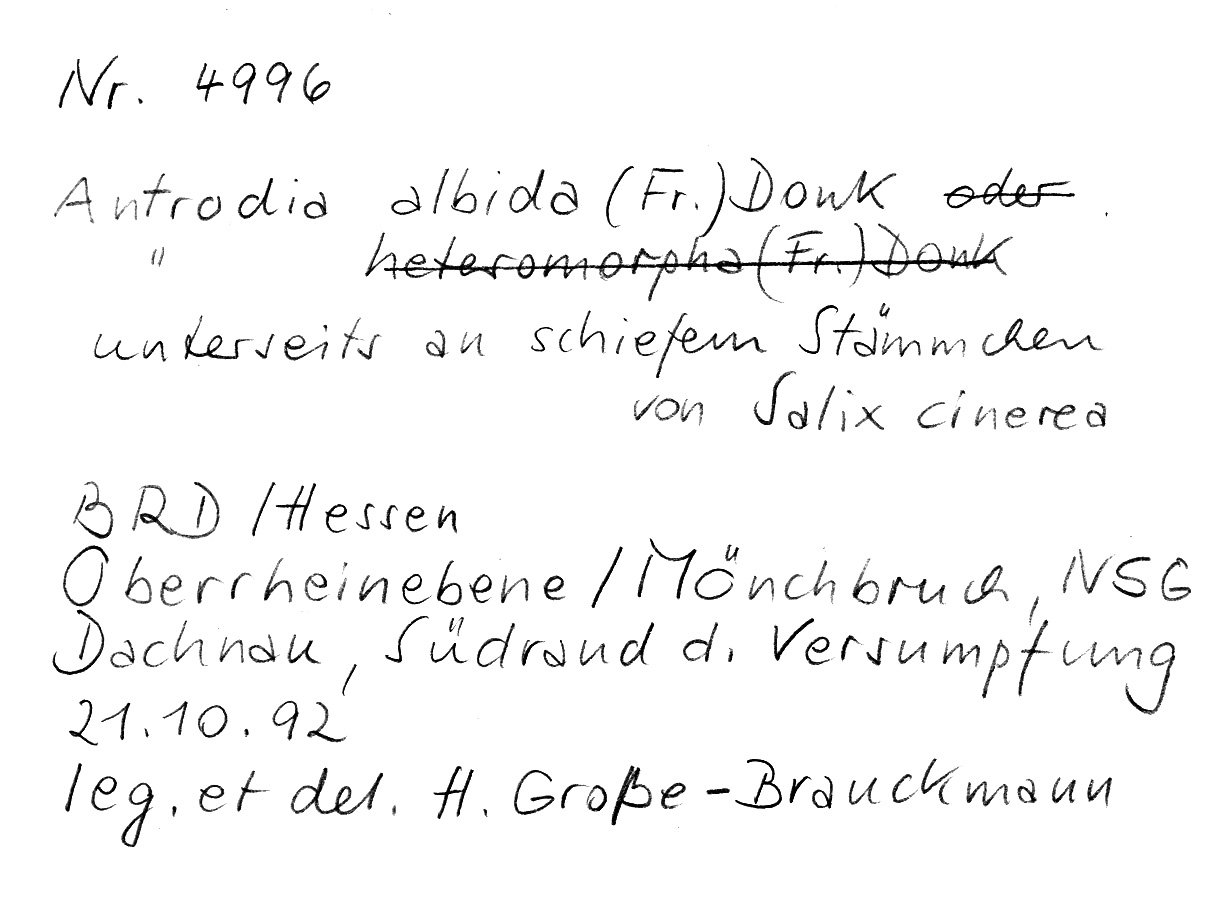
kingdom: Fungi
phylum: Basidiomycota
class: Agaricomycetes
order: Polyporales
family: Fomitopsidaceae
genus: Antrodia
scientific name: Antrodia albida
